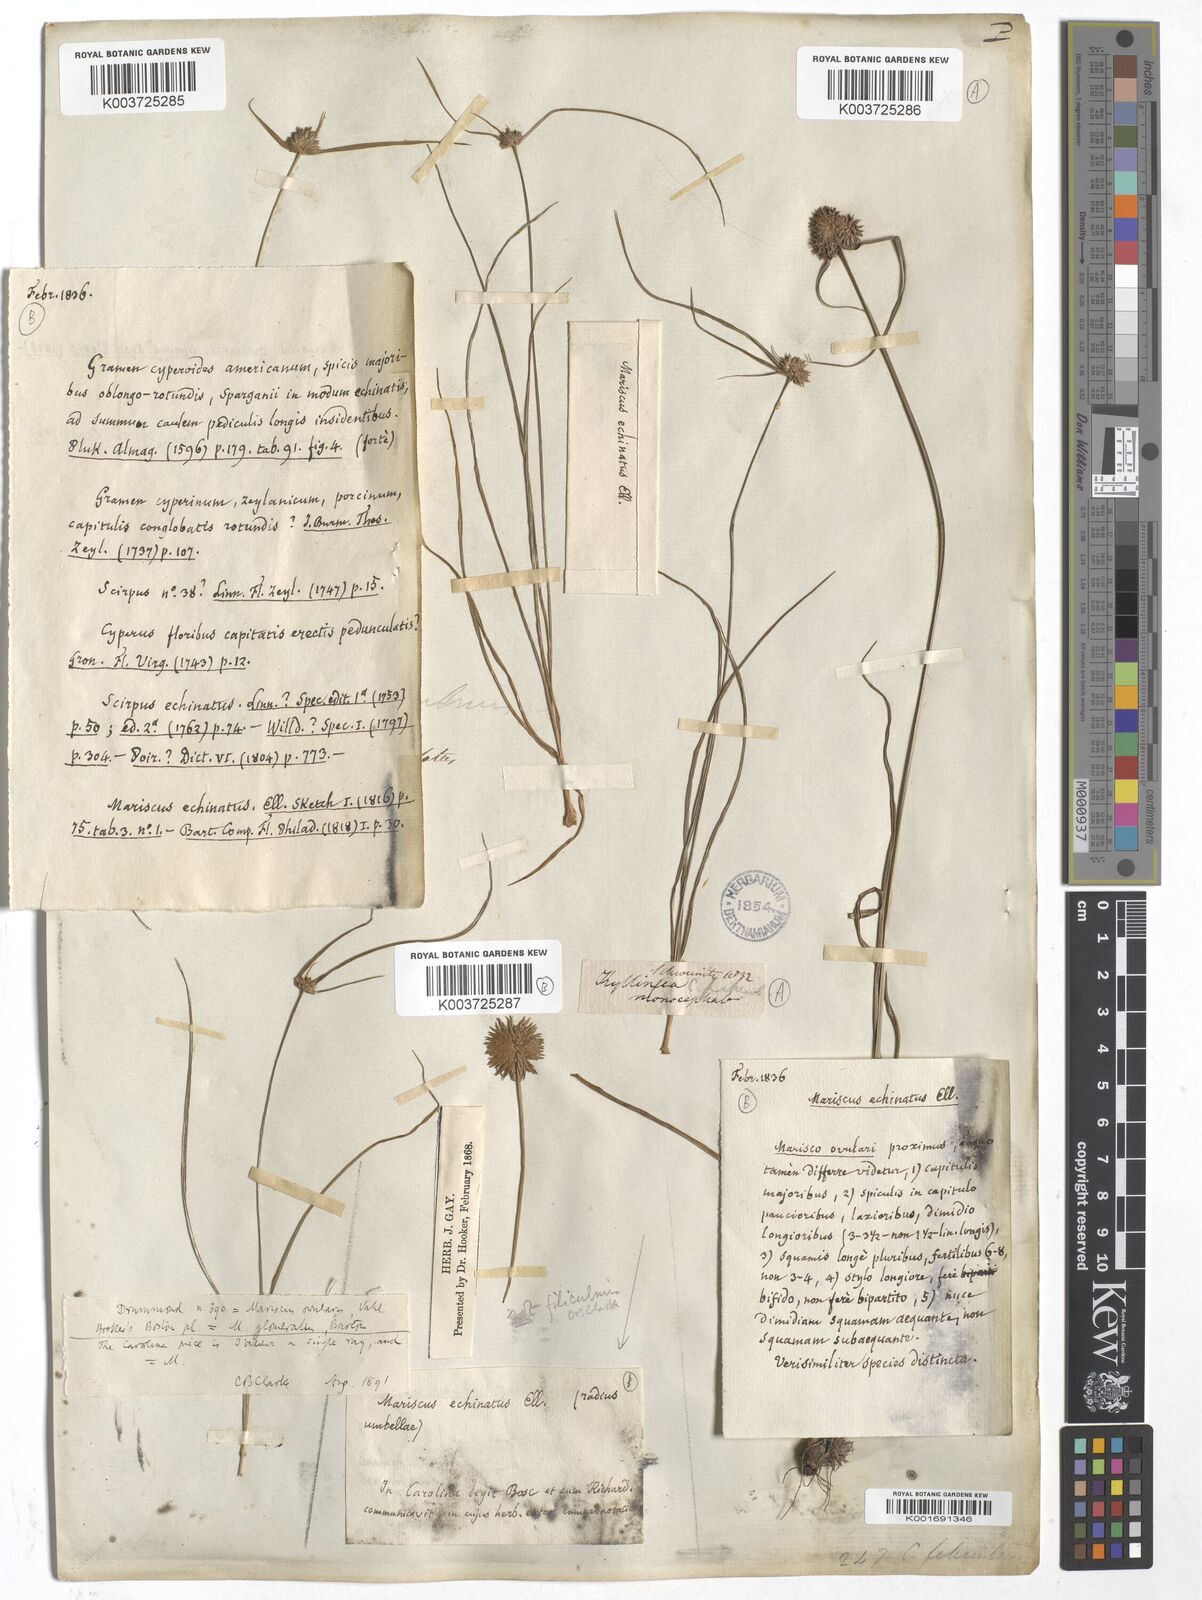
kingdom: Plantae
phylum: Tracheophyta
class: Liliopsida
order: Poales
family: Cyperaceae
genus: Cyperus
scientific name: Cyperus echinatus
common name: Teasel sedge
